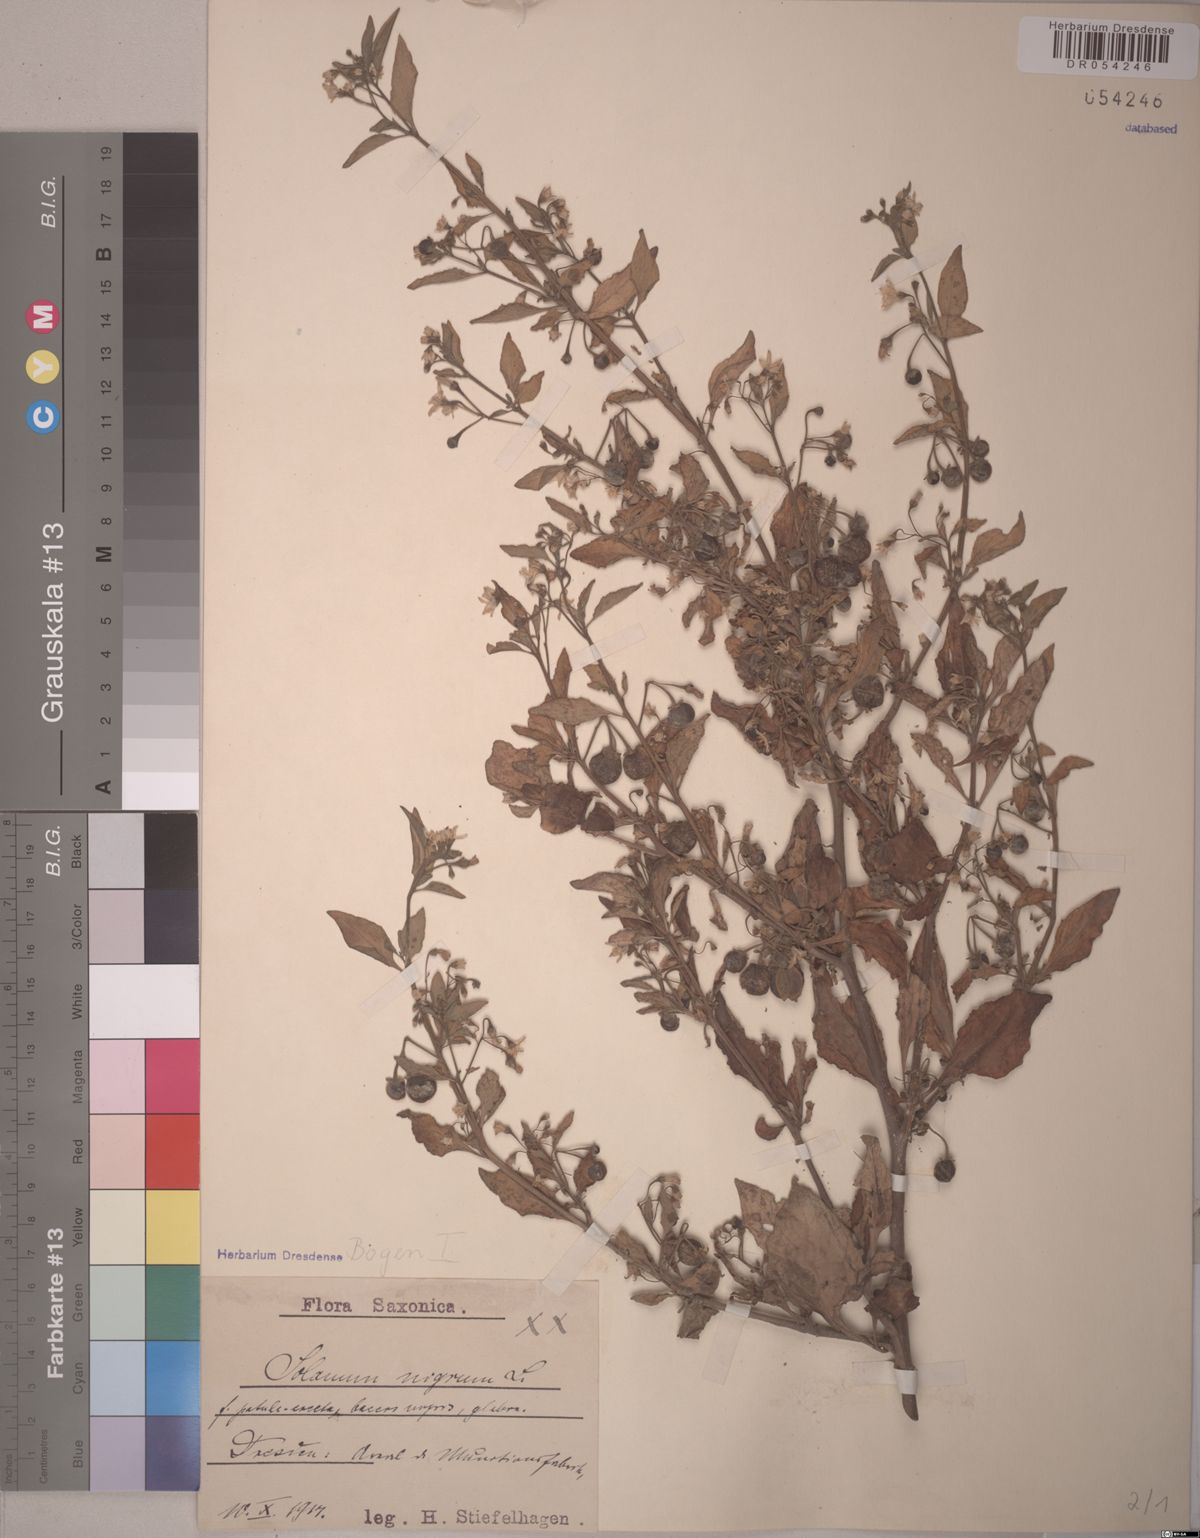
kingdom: Plantae
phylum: Tracheophyta
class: Magnoliopsida
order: Solanales
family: Solanaceae
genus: Solanum
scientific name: Solanum nigrum
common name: Black nightshade
